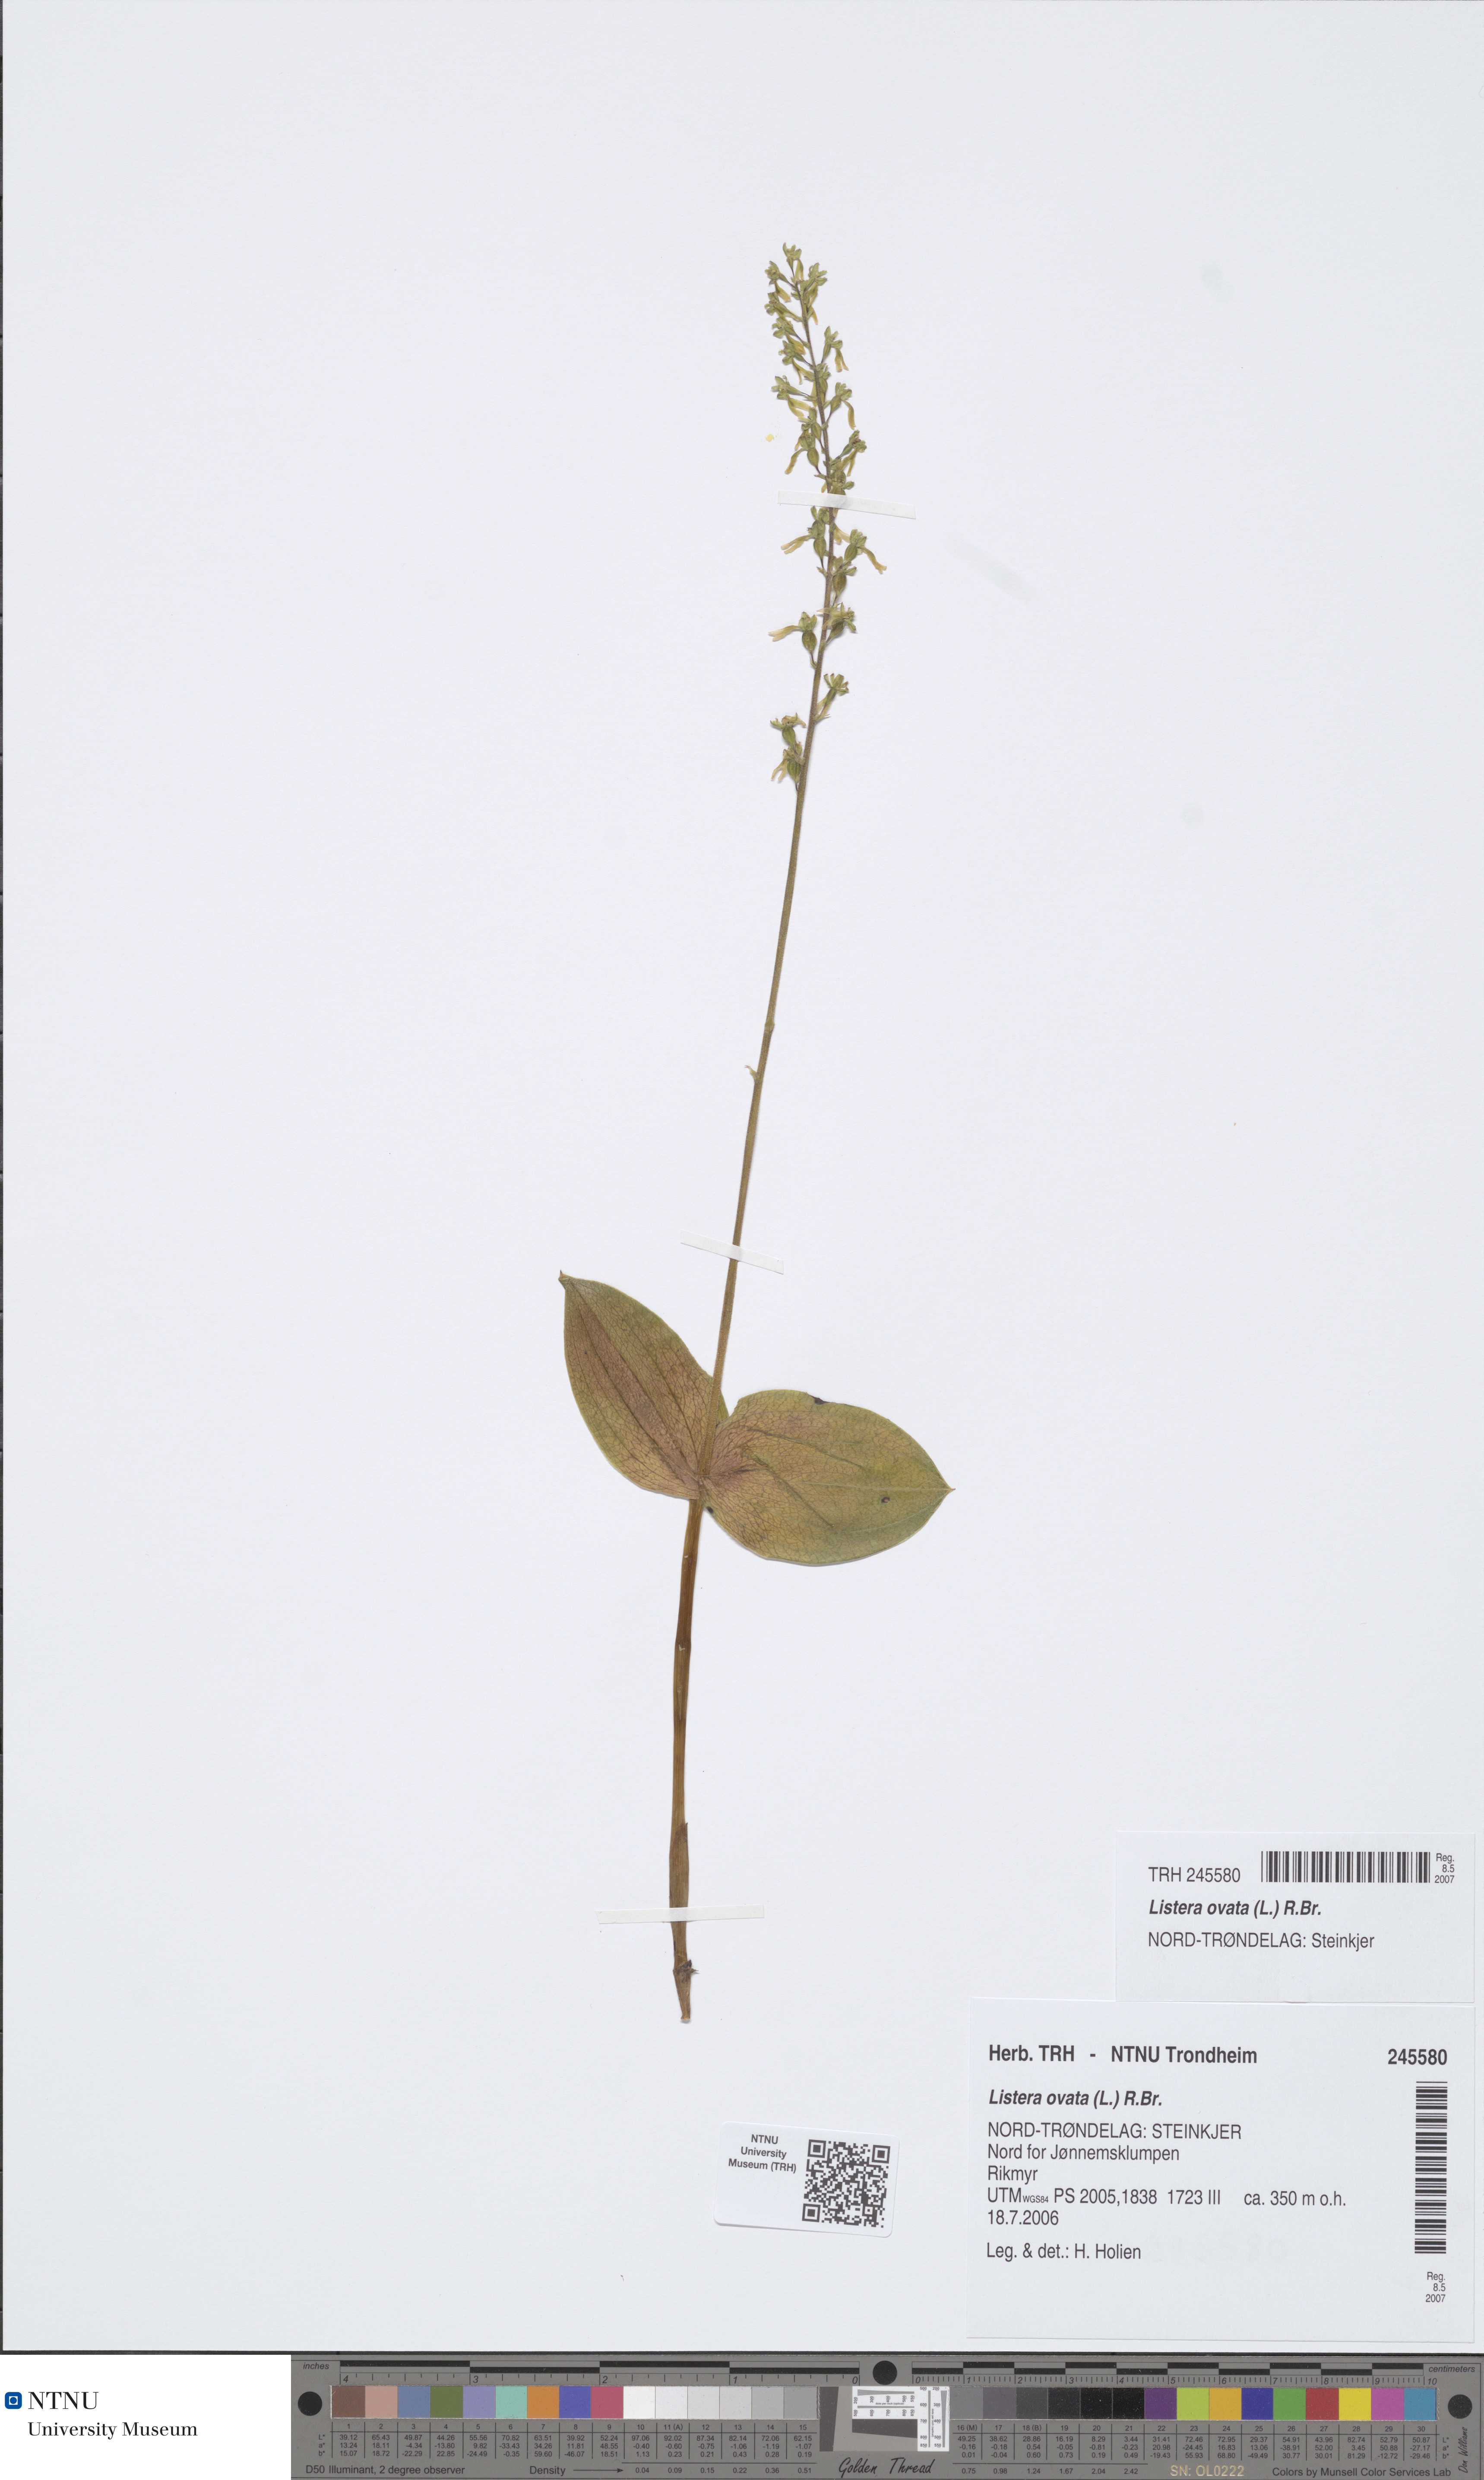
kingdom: Plantae
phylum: Tracheophyta
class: Liliopsida
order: Asparagales
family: Orchidaceae
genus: Neottia
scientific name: Neottia ovata
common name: Common twayblade
